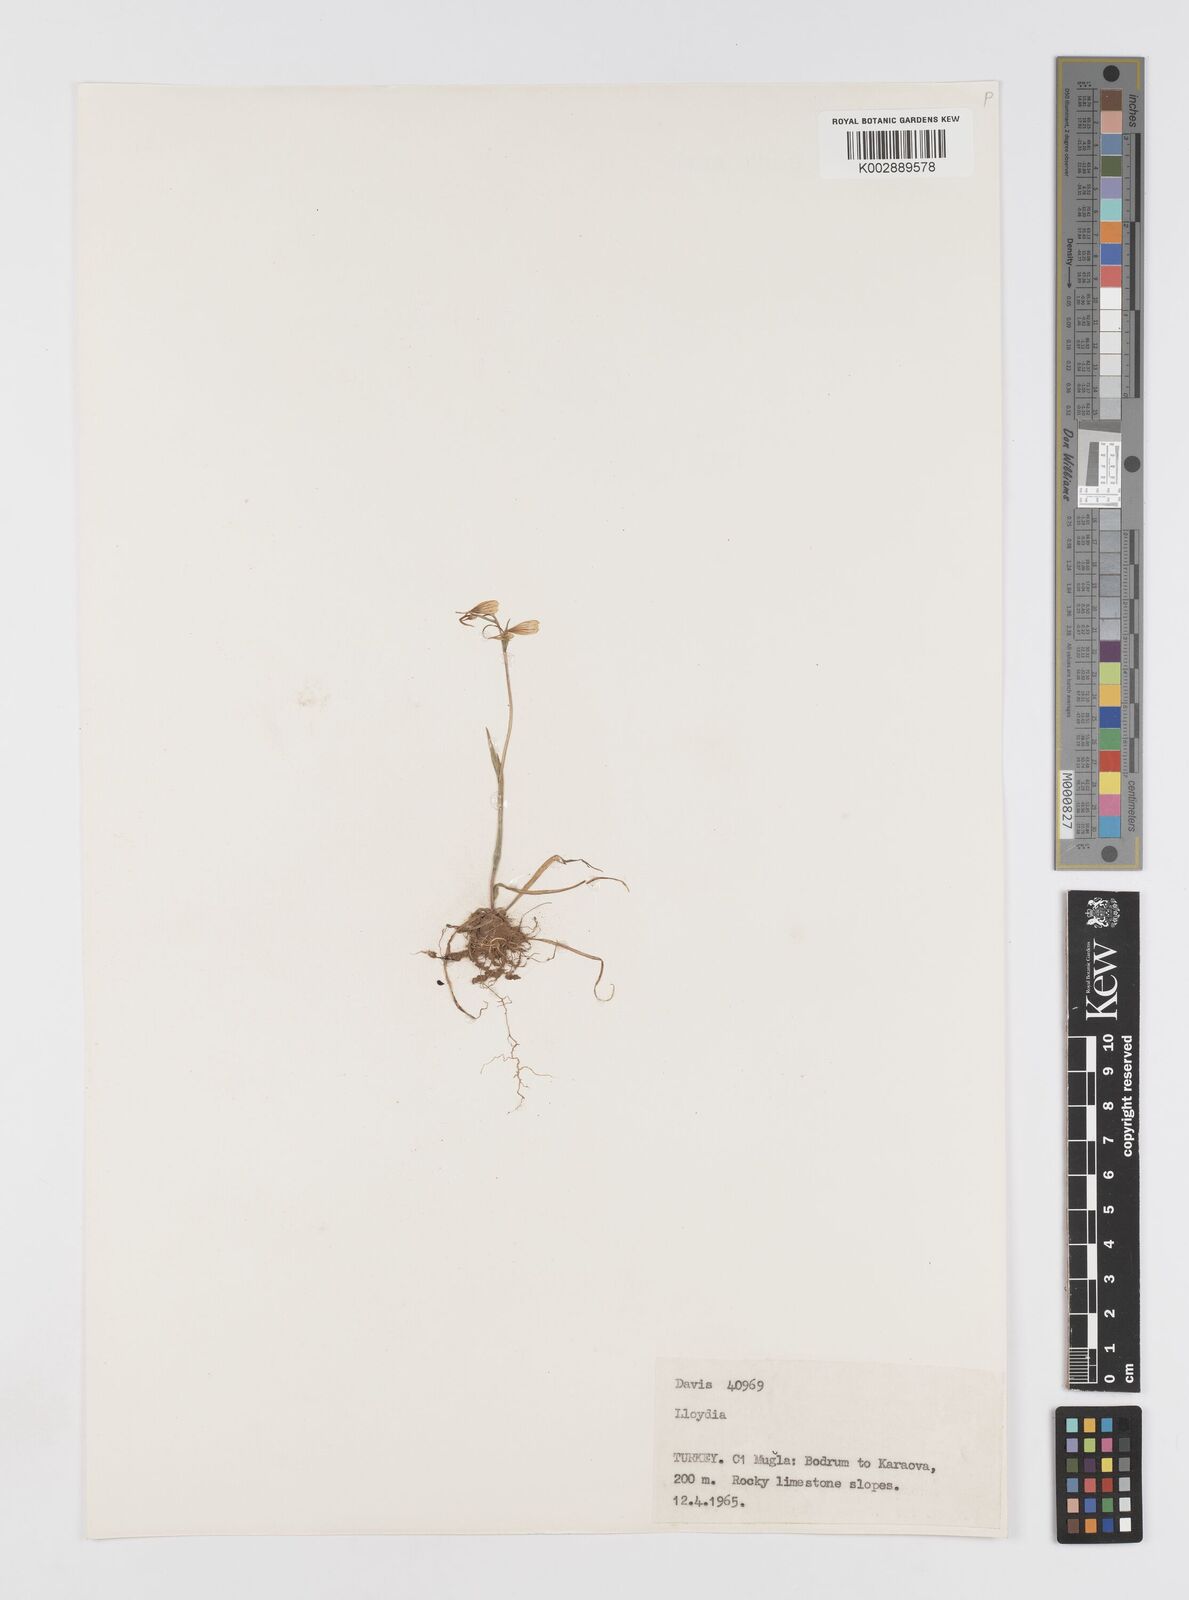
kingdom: Plantae
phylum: Tracheophyta
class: Liliopsida
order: Liliales
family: Liliaceae
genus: Gagea
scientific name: Gagea
